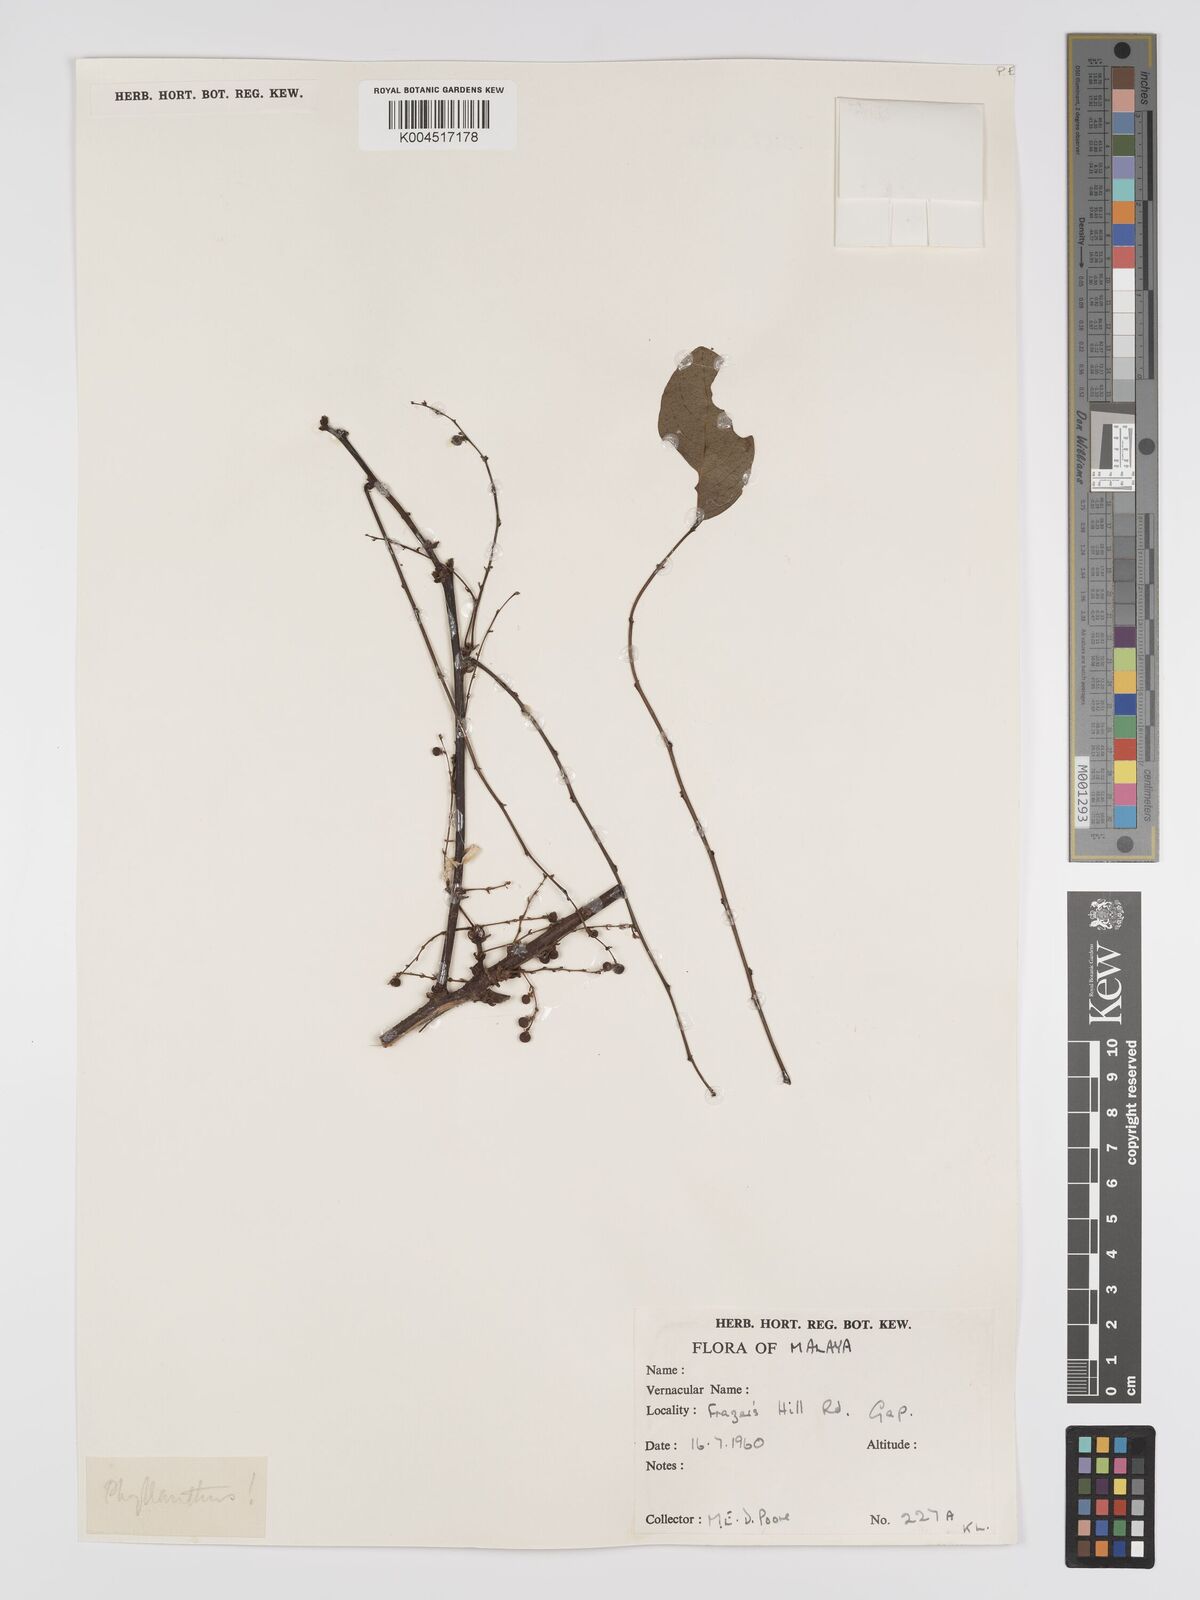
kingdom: Plantae
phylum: Tracheophyta
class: Magnoliopsida
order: Malpighiales
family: Phyllanthaceae
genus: Phyllanthus
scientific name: Phyllanthus microcarpus
